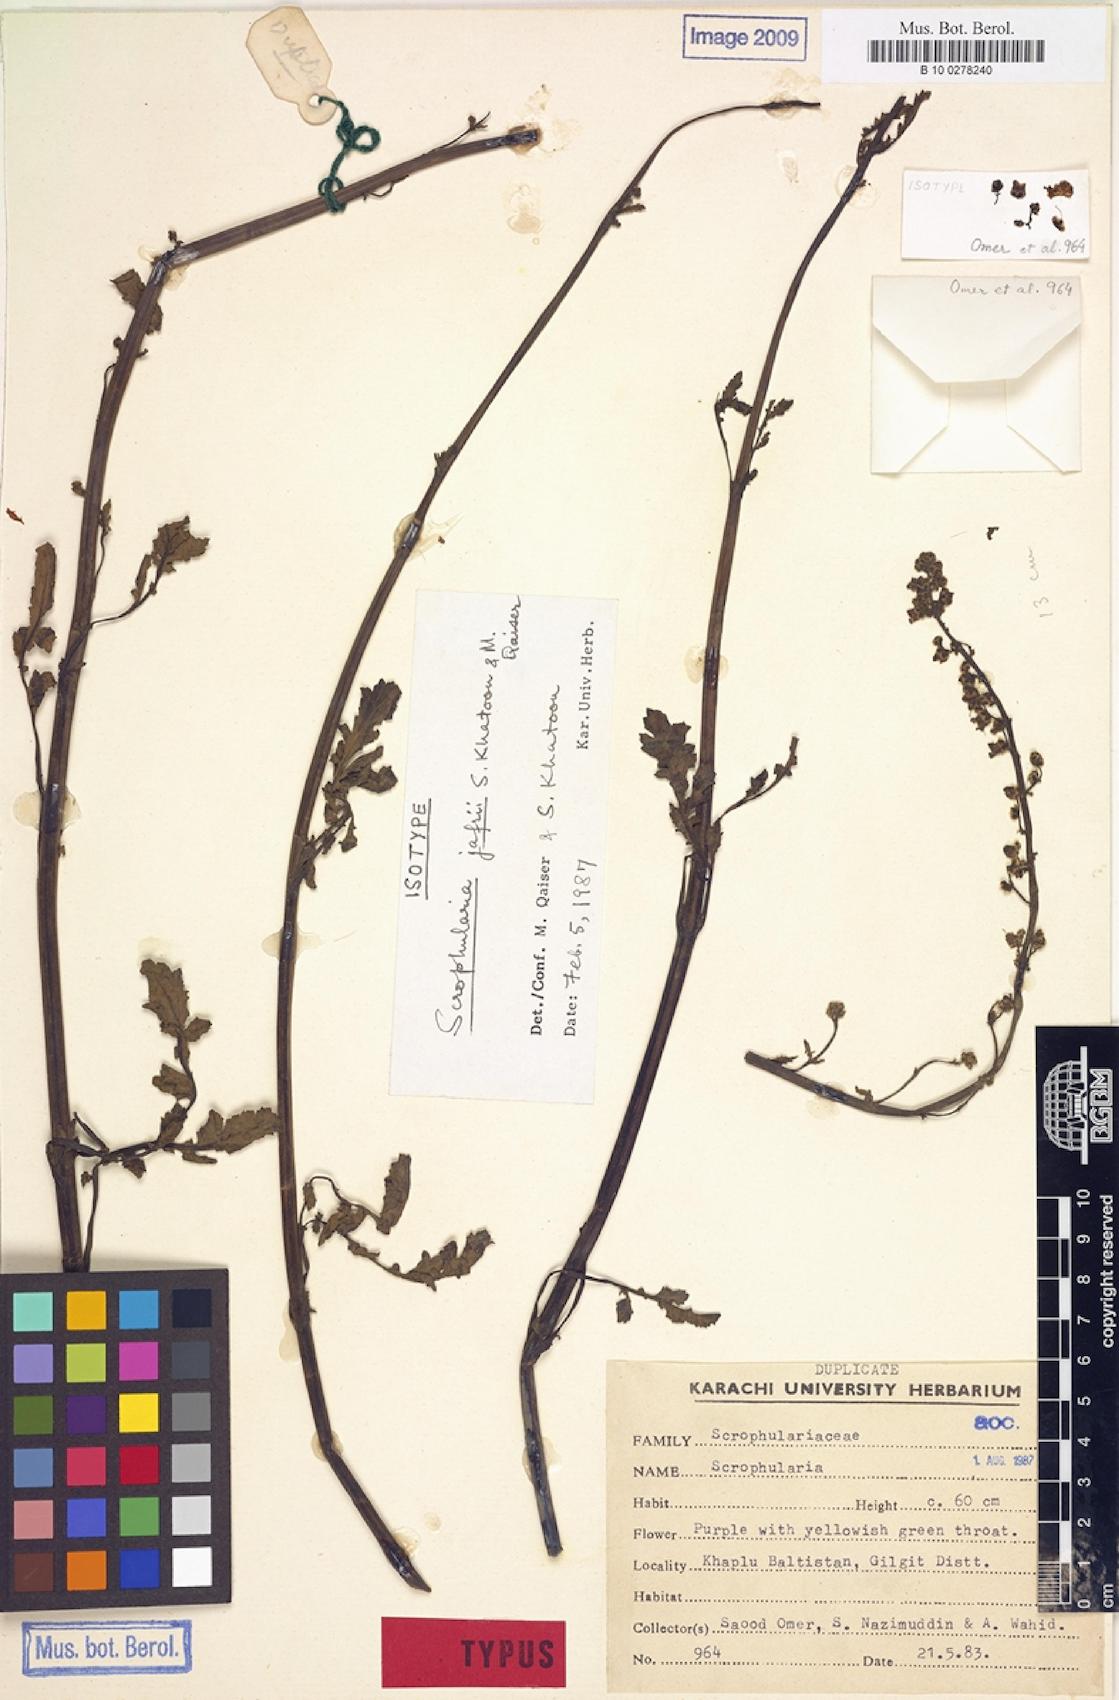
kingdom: Plantae
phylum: Tracheophyta
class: Magnoliopsida
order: Lamiales
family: Scrophulariaceae
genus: Scrophularia
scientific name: Scrophularia jafrii
